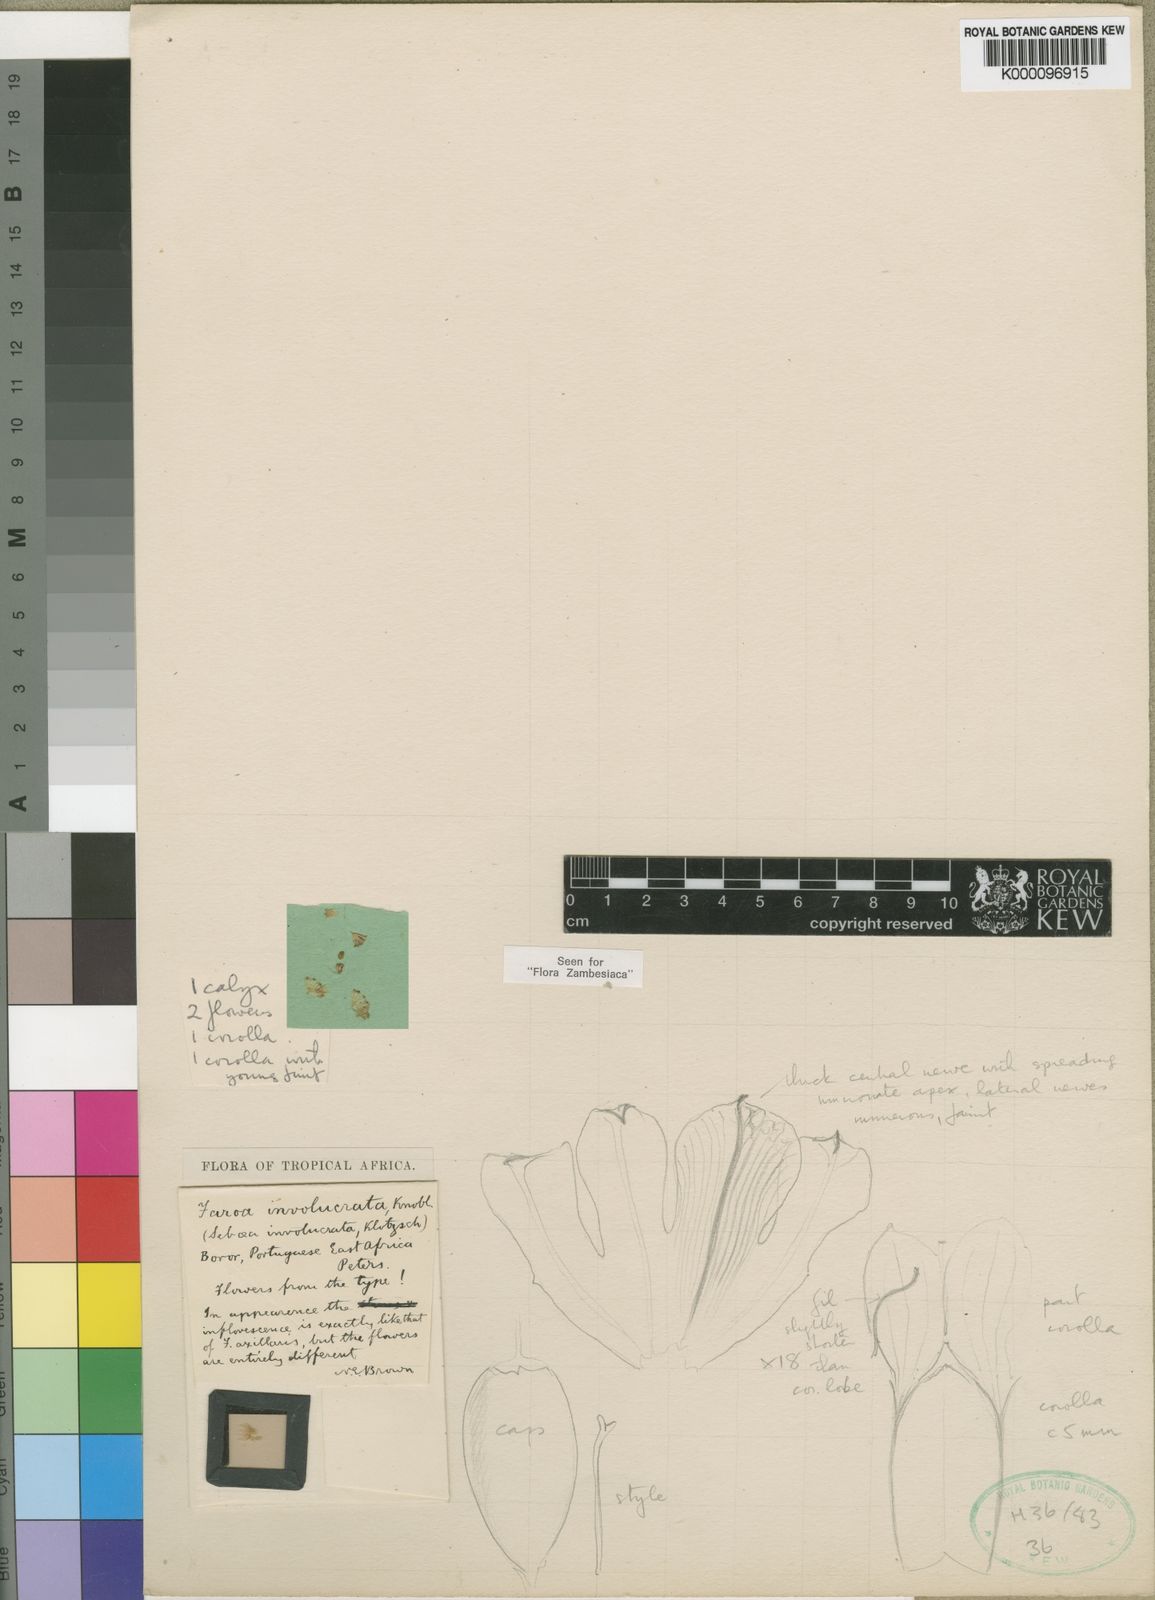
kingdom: Plantae
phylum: Tracheophyta
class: Magnoliopsida
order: Gentianales
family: Gentianaceae
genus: Faroa
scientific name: Faroa involucrata
